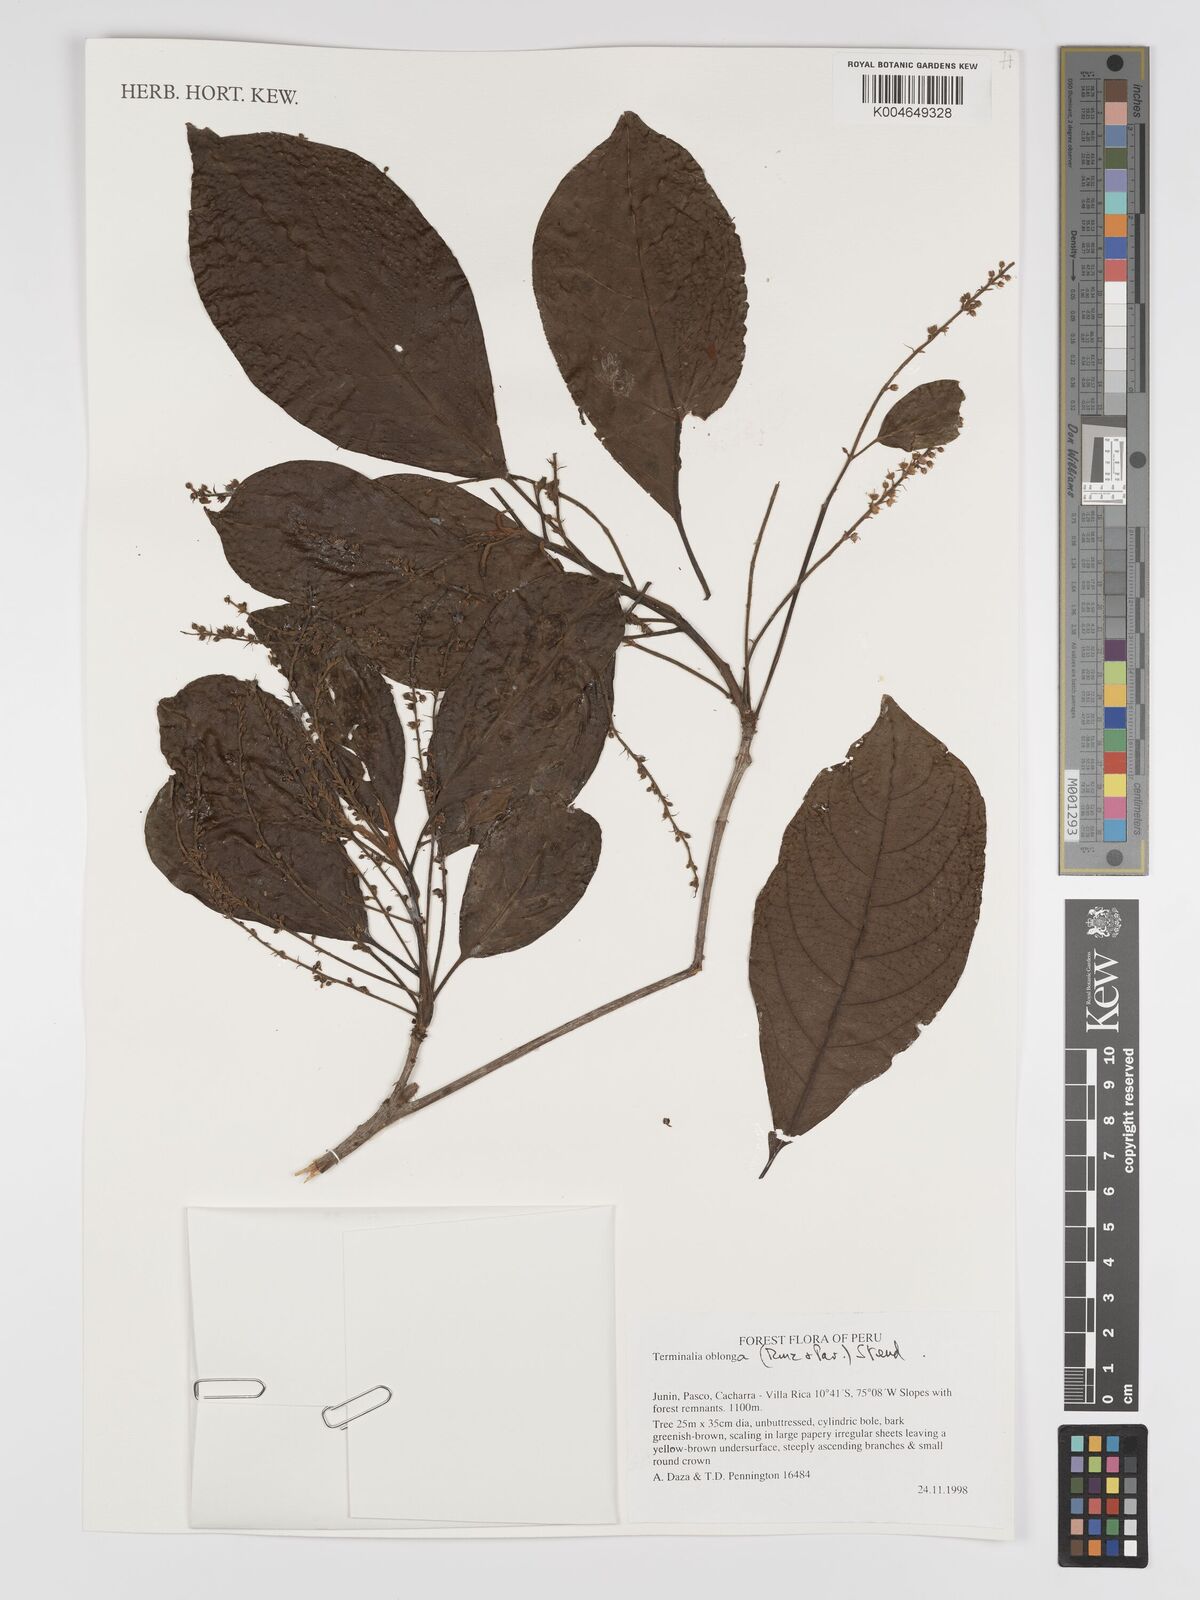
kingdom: Plantae
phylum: Tracheophyta
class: Magnoliopsida
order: Myrtales
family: Combretaceae
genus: Terminalia
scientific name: Terminalia oblonga
